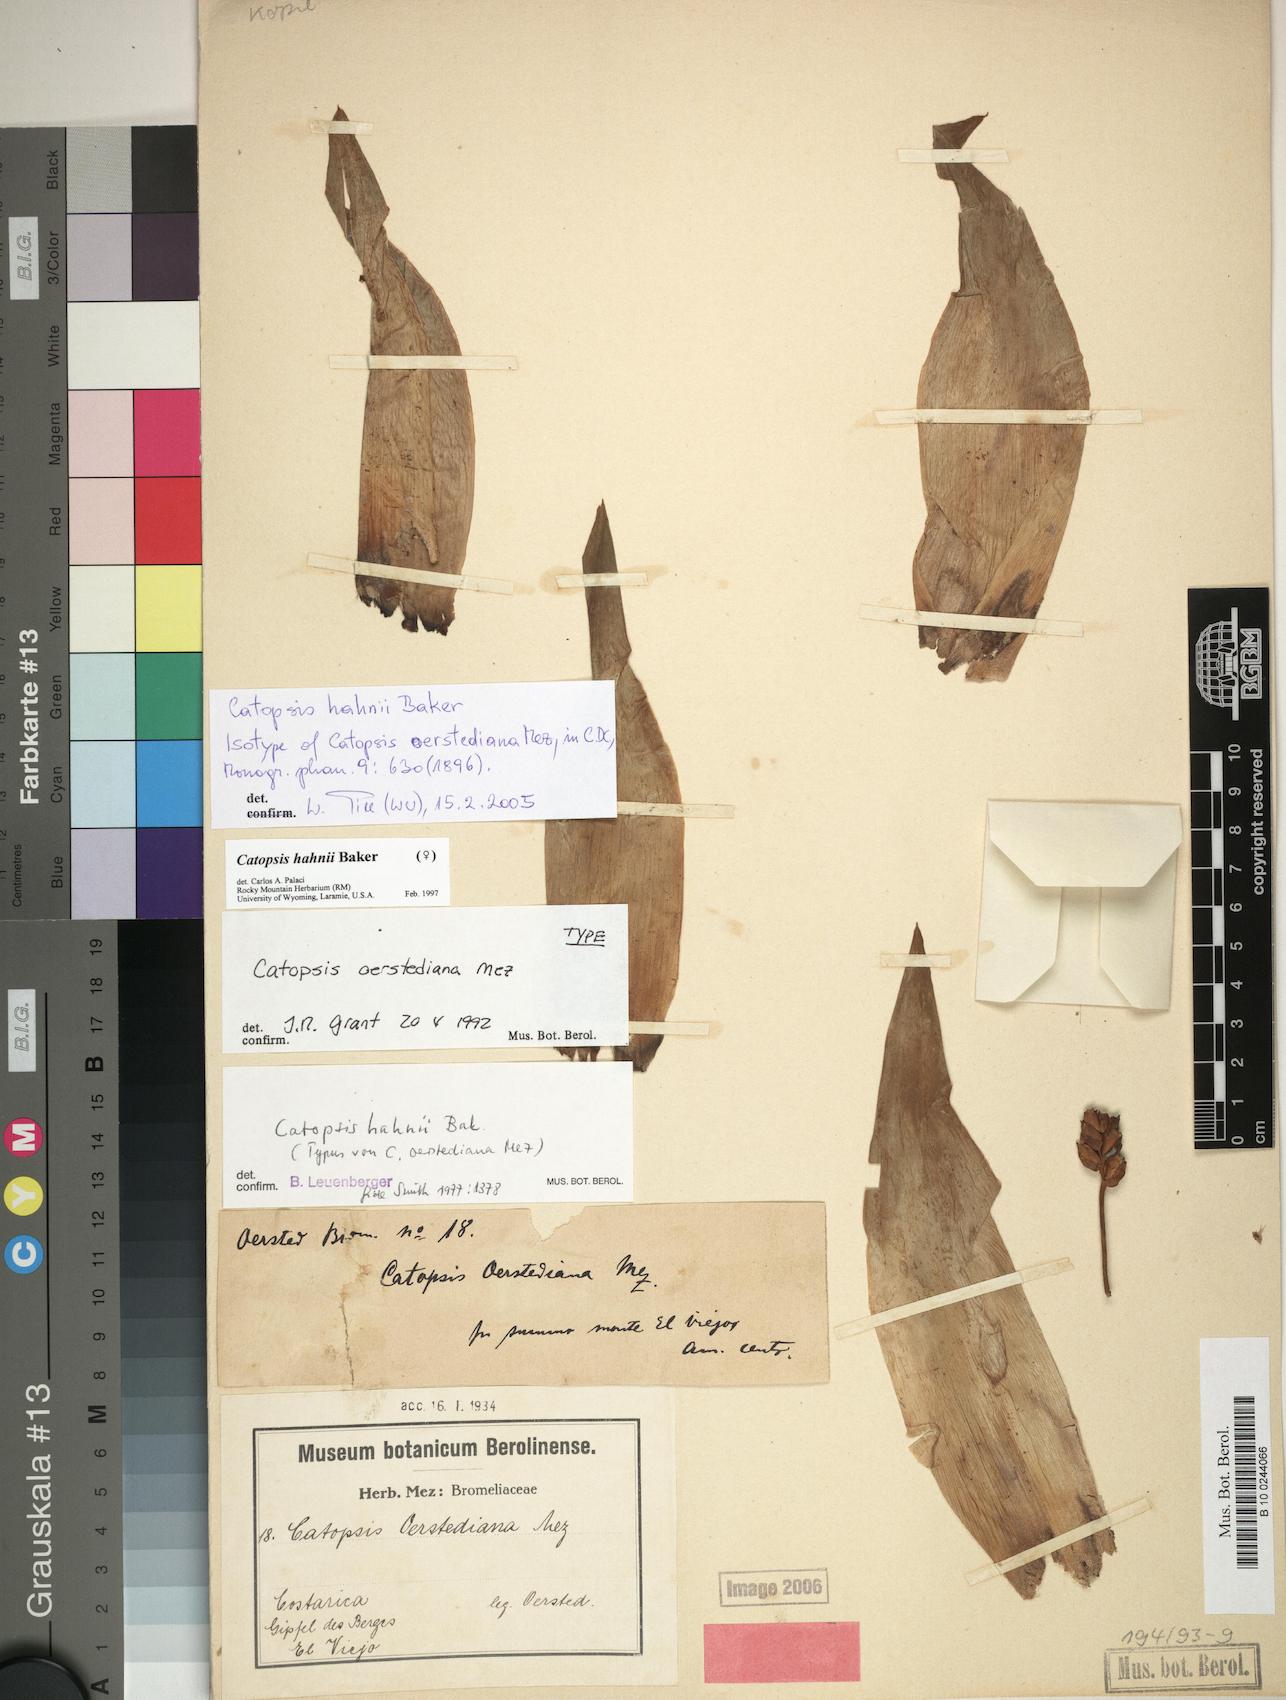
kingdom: Plantae
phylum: Tracheophyta
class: Liliopsida
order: Poales
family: Bromeliaceae
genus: Catopsis
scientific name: Catopsis paniculata
